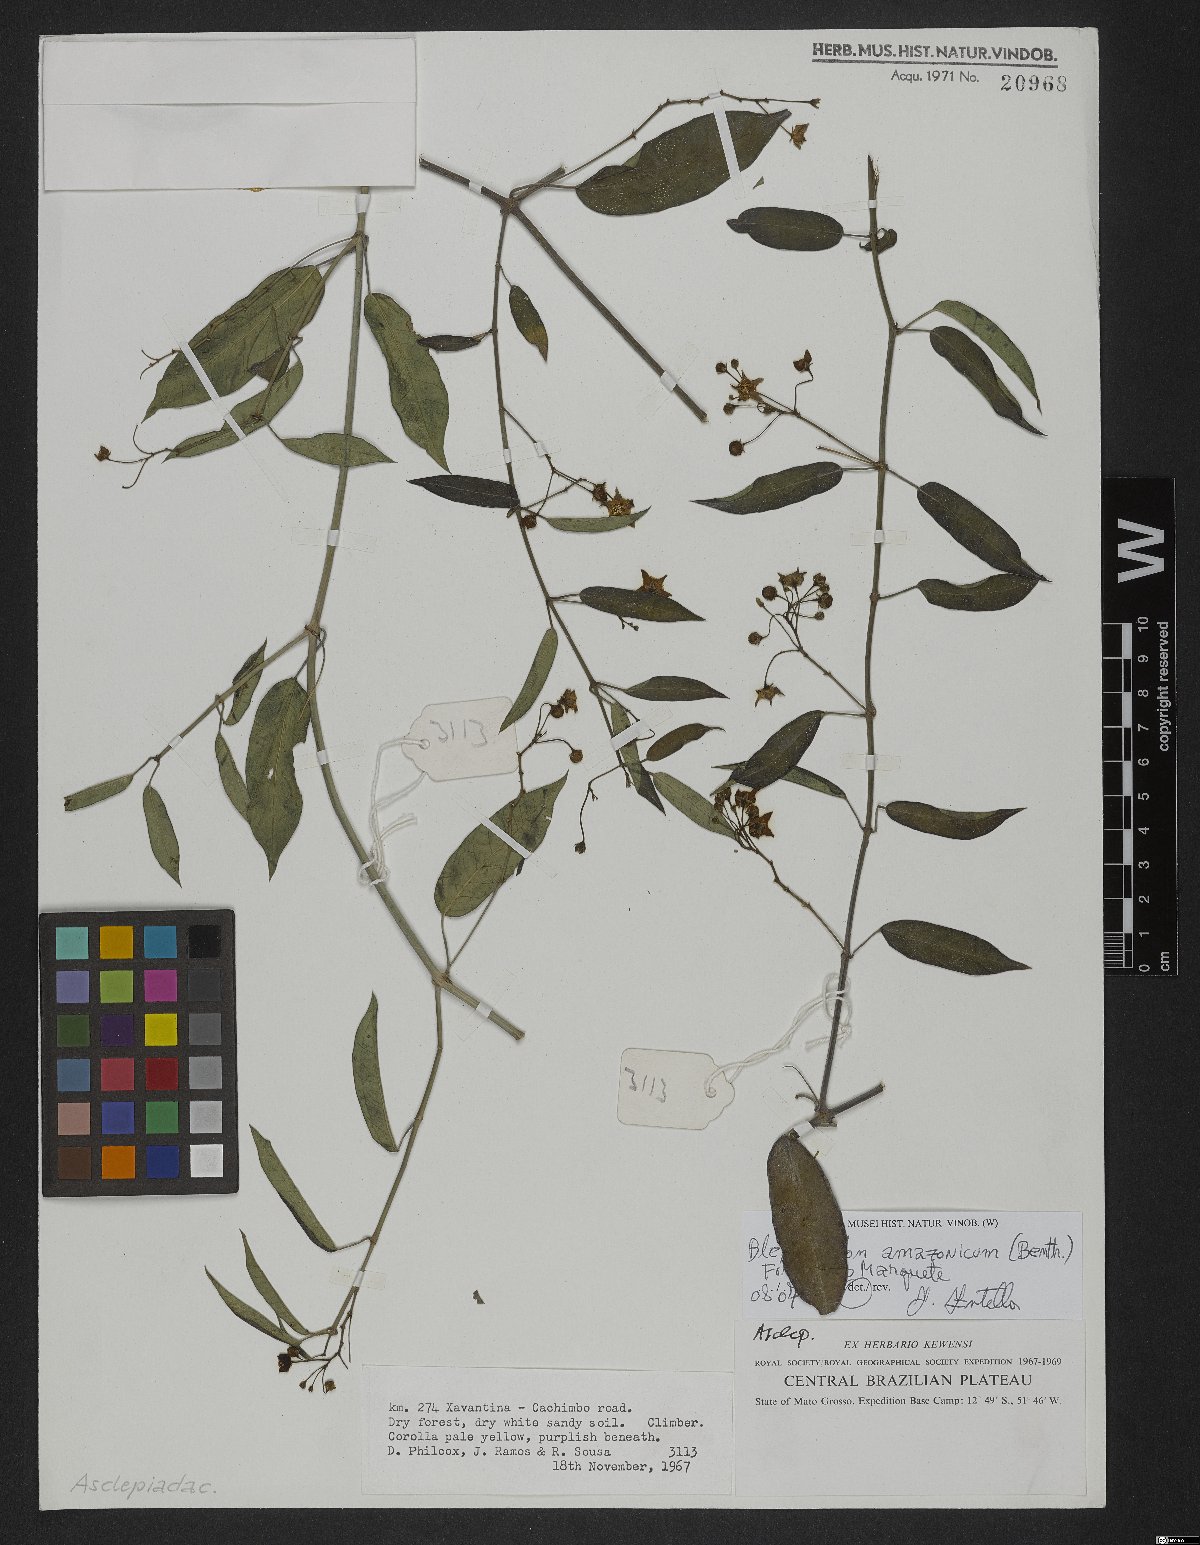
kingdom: Plantae
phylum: Tracheophyta
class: Magnoliopsida
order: Gentianales
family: Apocynaceae
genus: Blepharodon
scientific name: Blepharodon amazonicum
